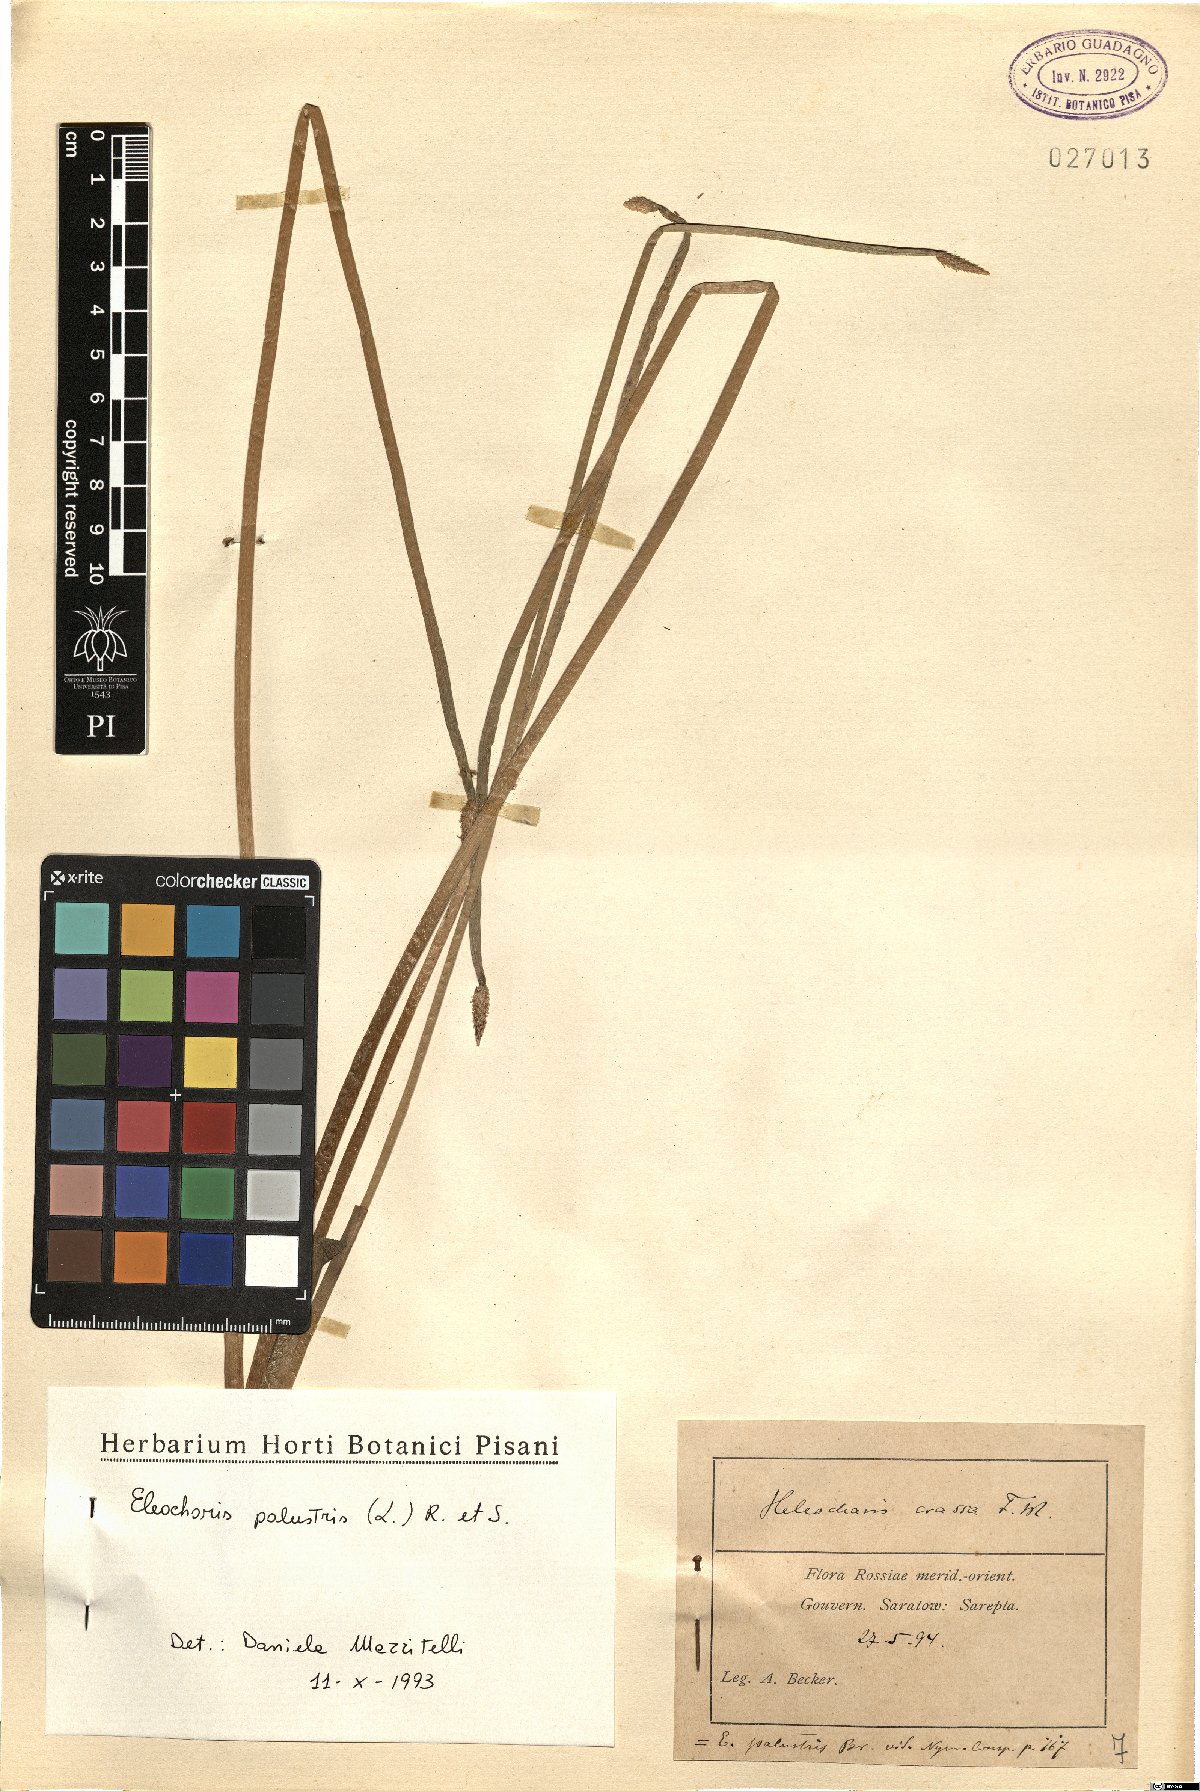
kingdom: Plantae
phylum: Tracheophyta
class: Liliopsida
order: Poales
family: Cyperaceae
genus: Eleocharis
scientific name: Eleocharis palustris
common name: Common spike-rush
